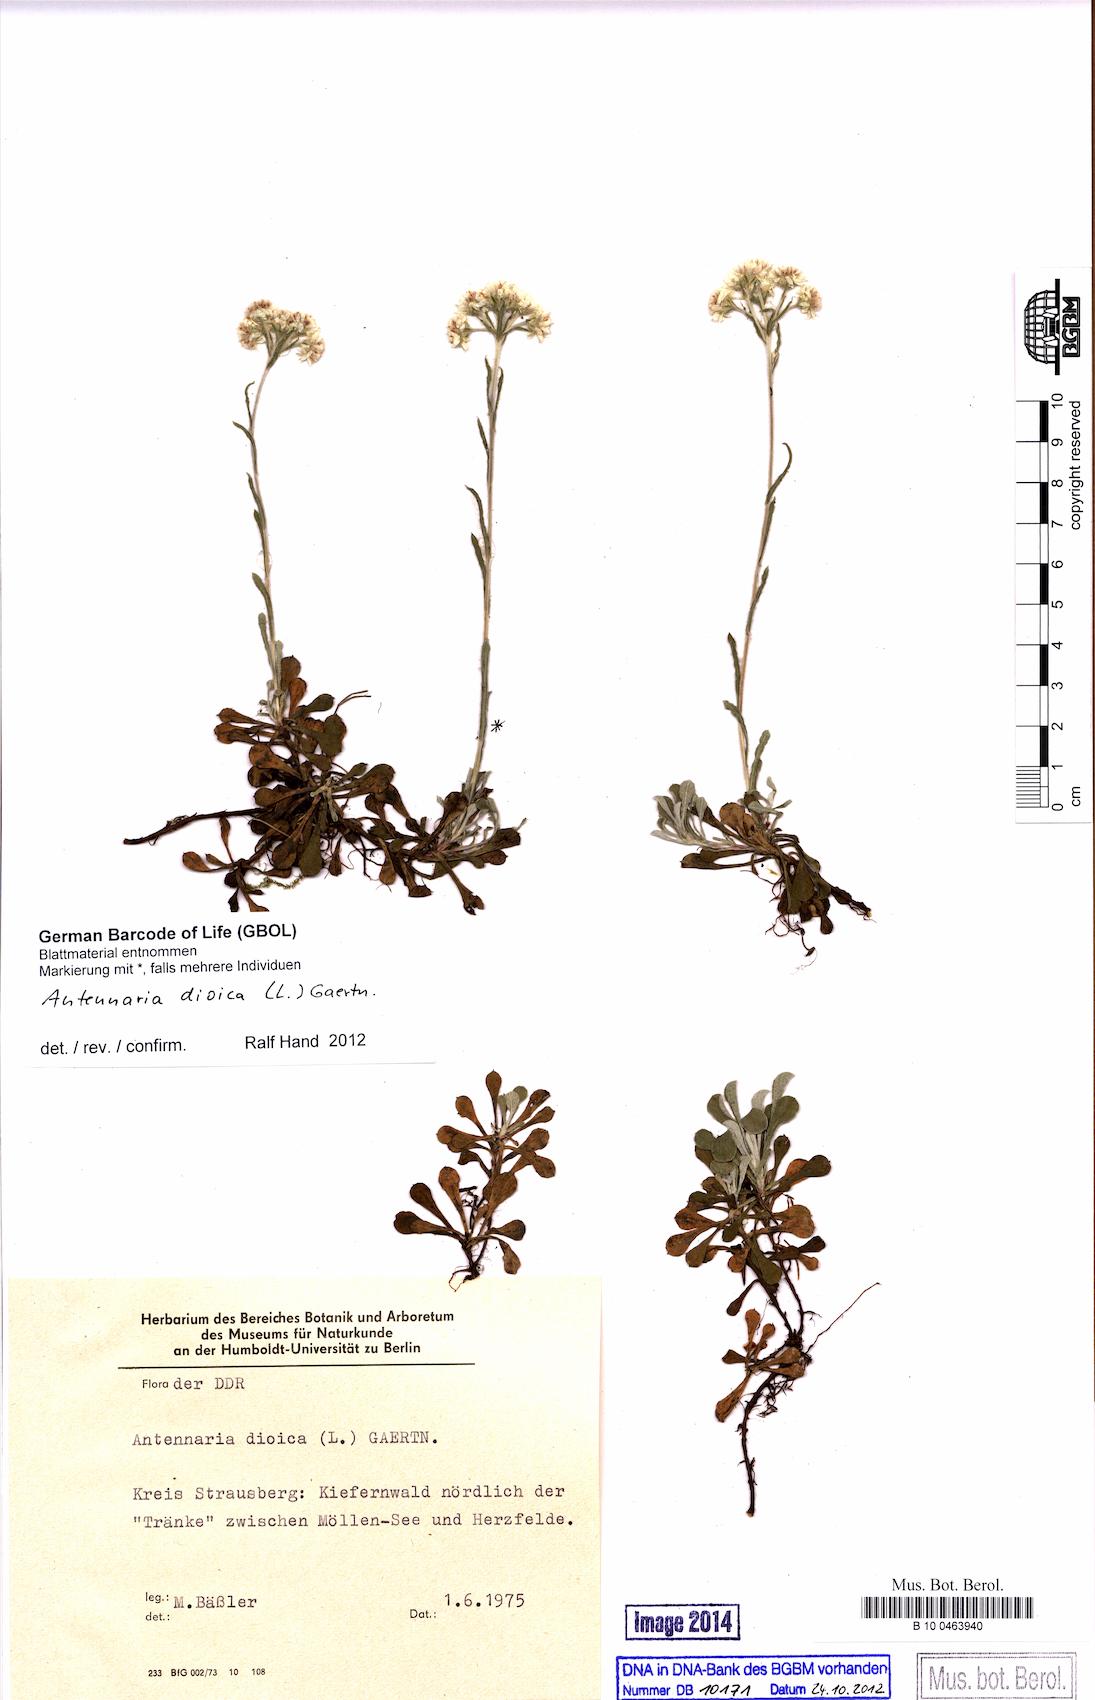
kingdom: Plantae
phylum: Tracheophyta
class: Magnoliopsida
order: Asterales
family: Asteraceae
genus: Antennaria
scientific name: Antennaria dioica
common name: Mountain everlasting
